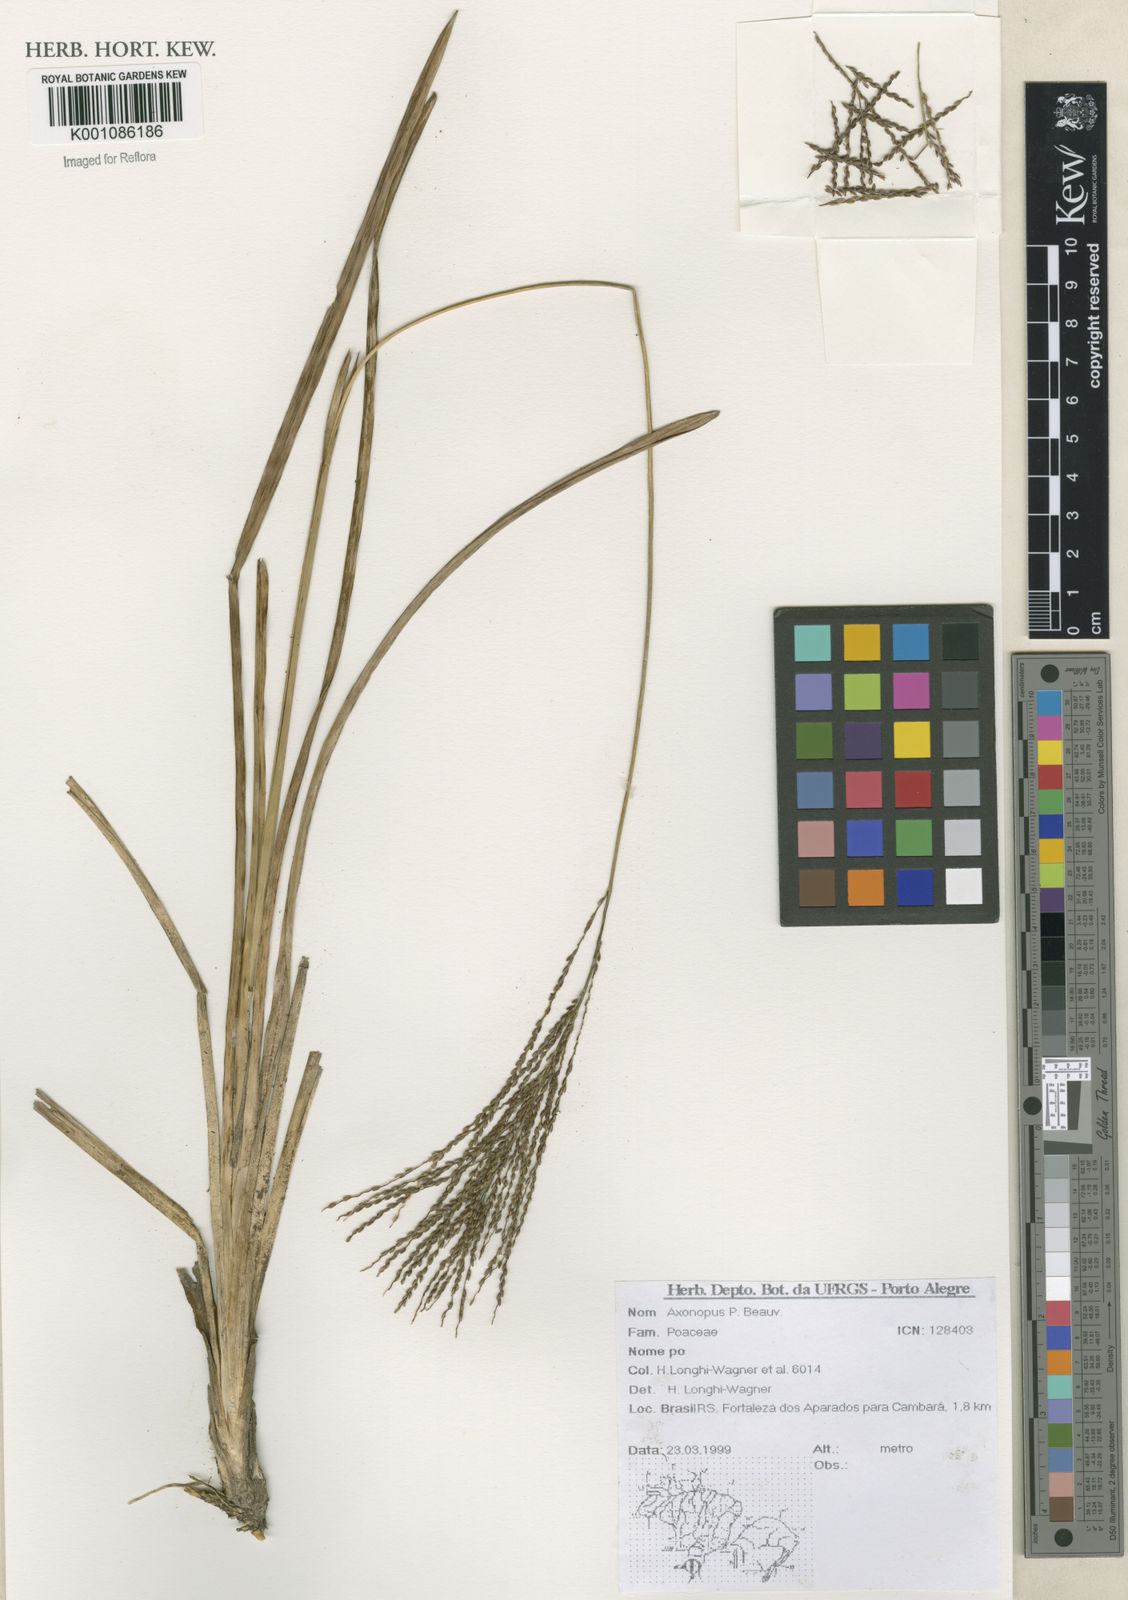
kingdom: Plantae
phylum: Tracheophyta
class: Liliopsida
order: Poales
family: Poaceae
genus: Axonopus
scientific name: Axonopus
